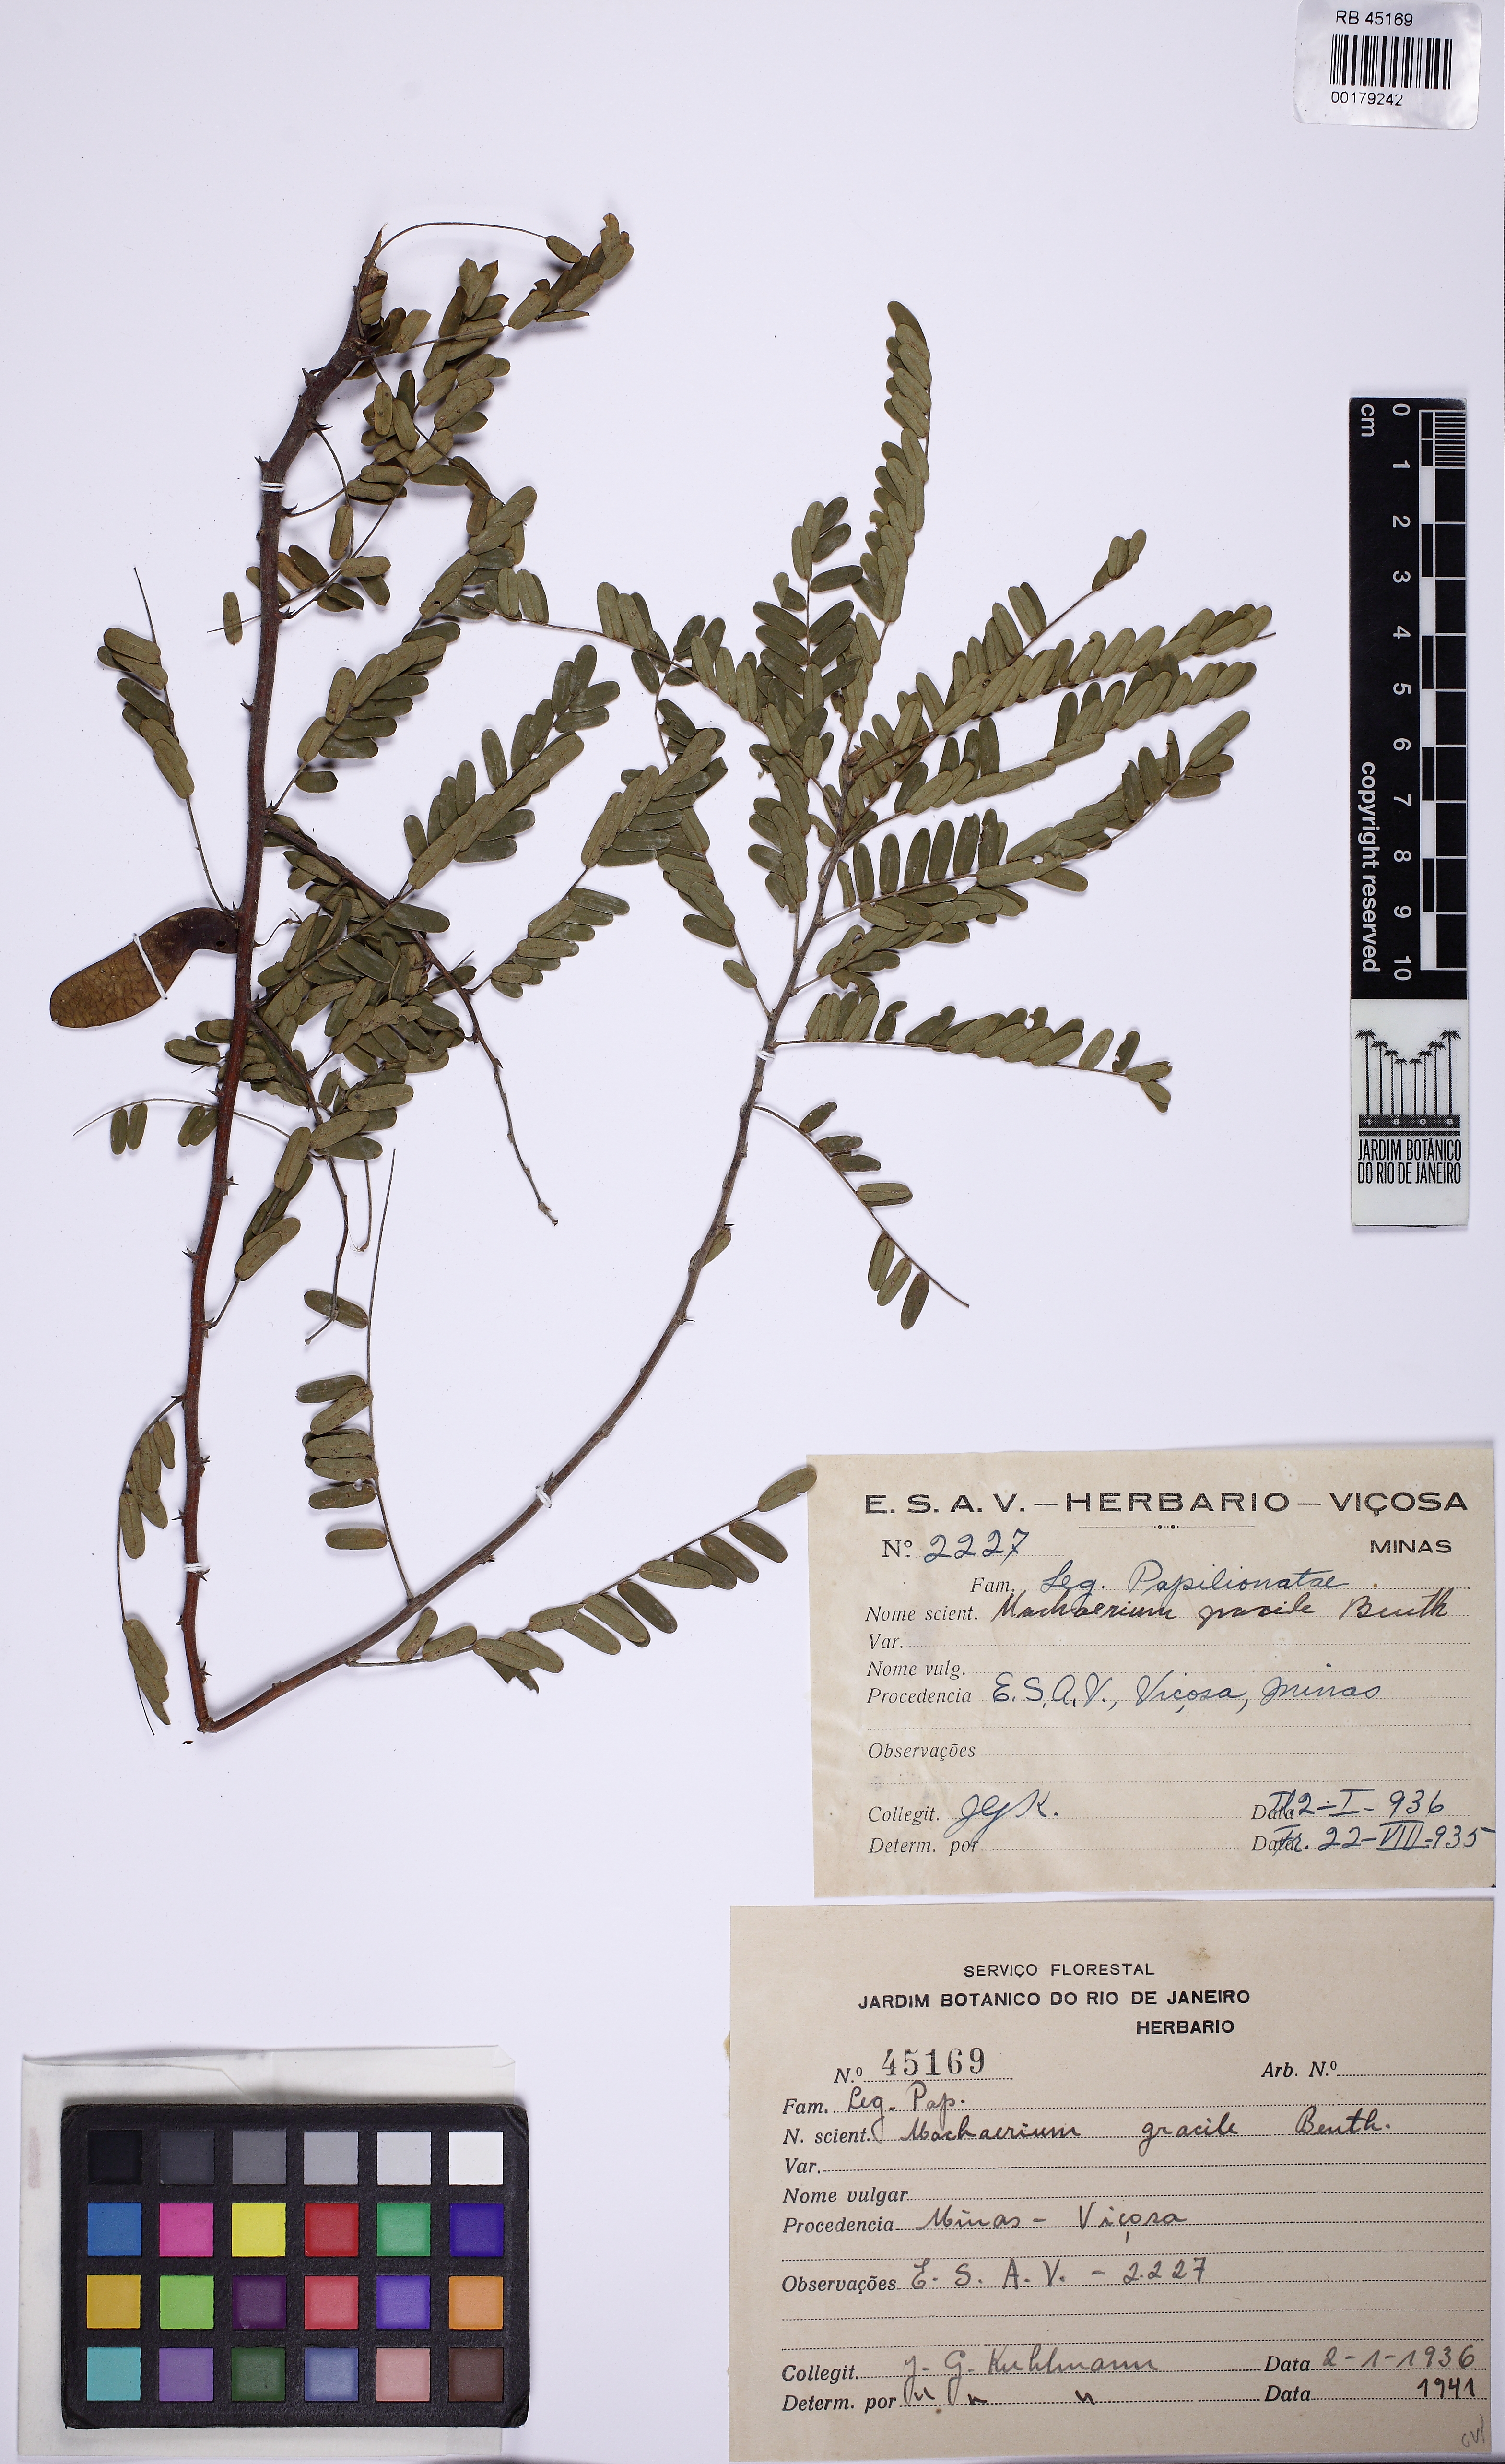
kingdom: Plantae
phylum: Tracheophyta
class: Magnoliopsida
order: Fabales
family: Fabaceae
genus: Machaerium
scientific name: Machaerium gracile
